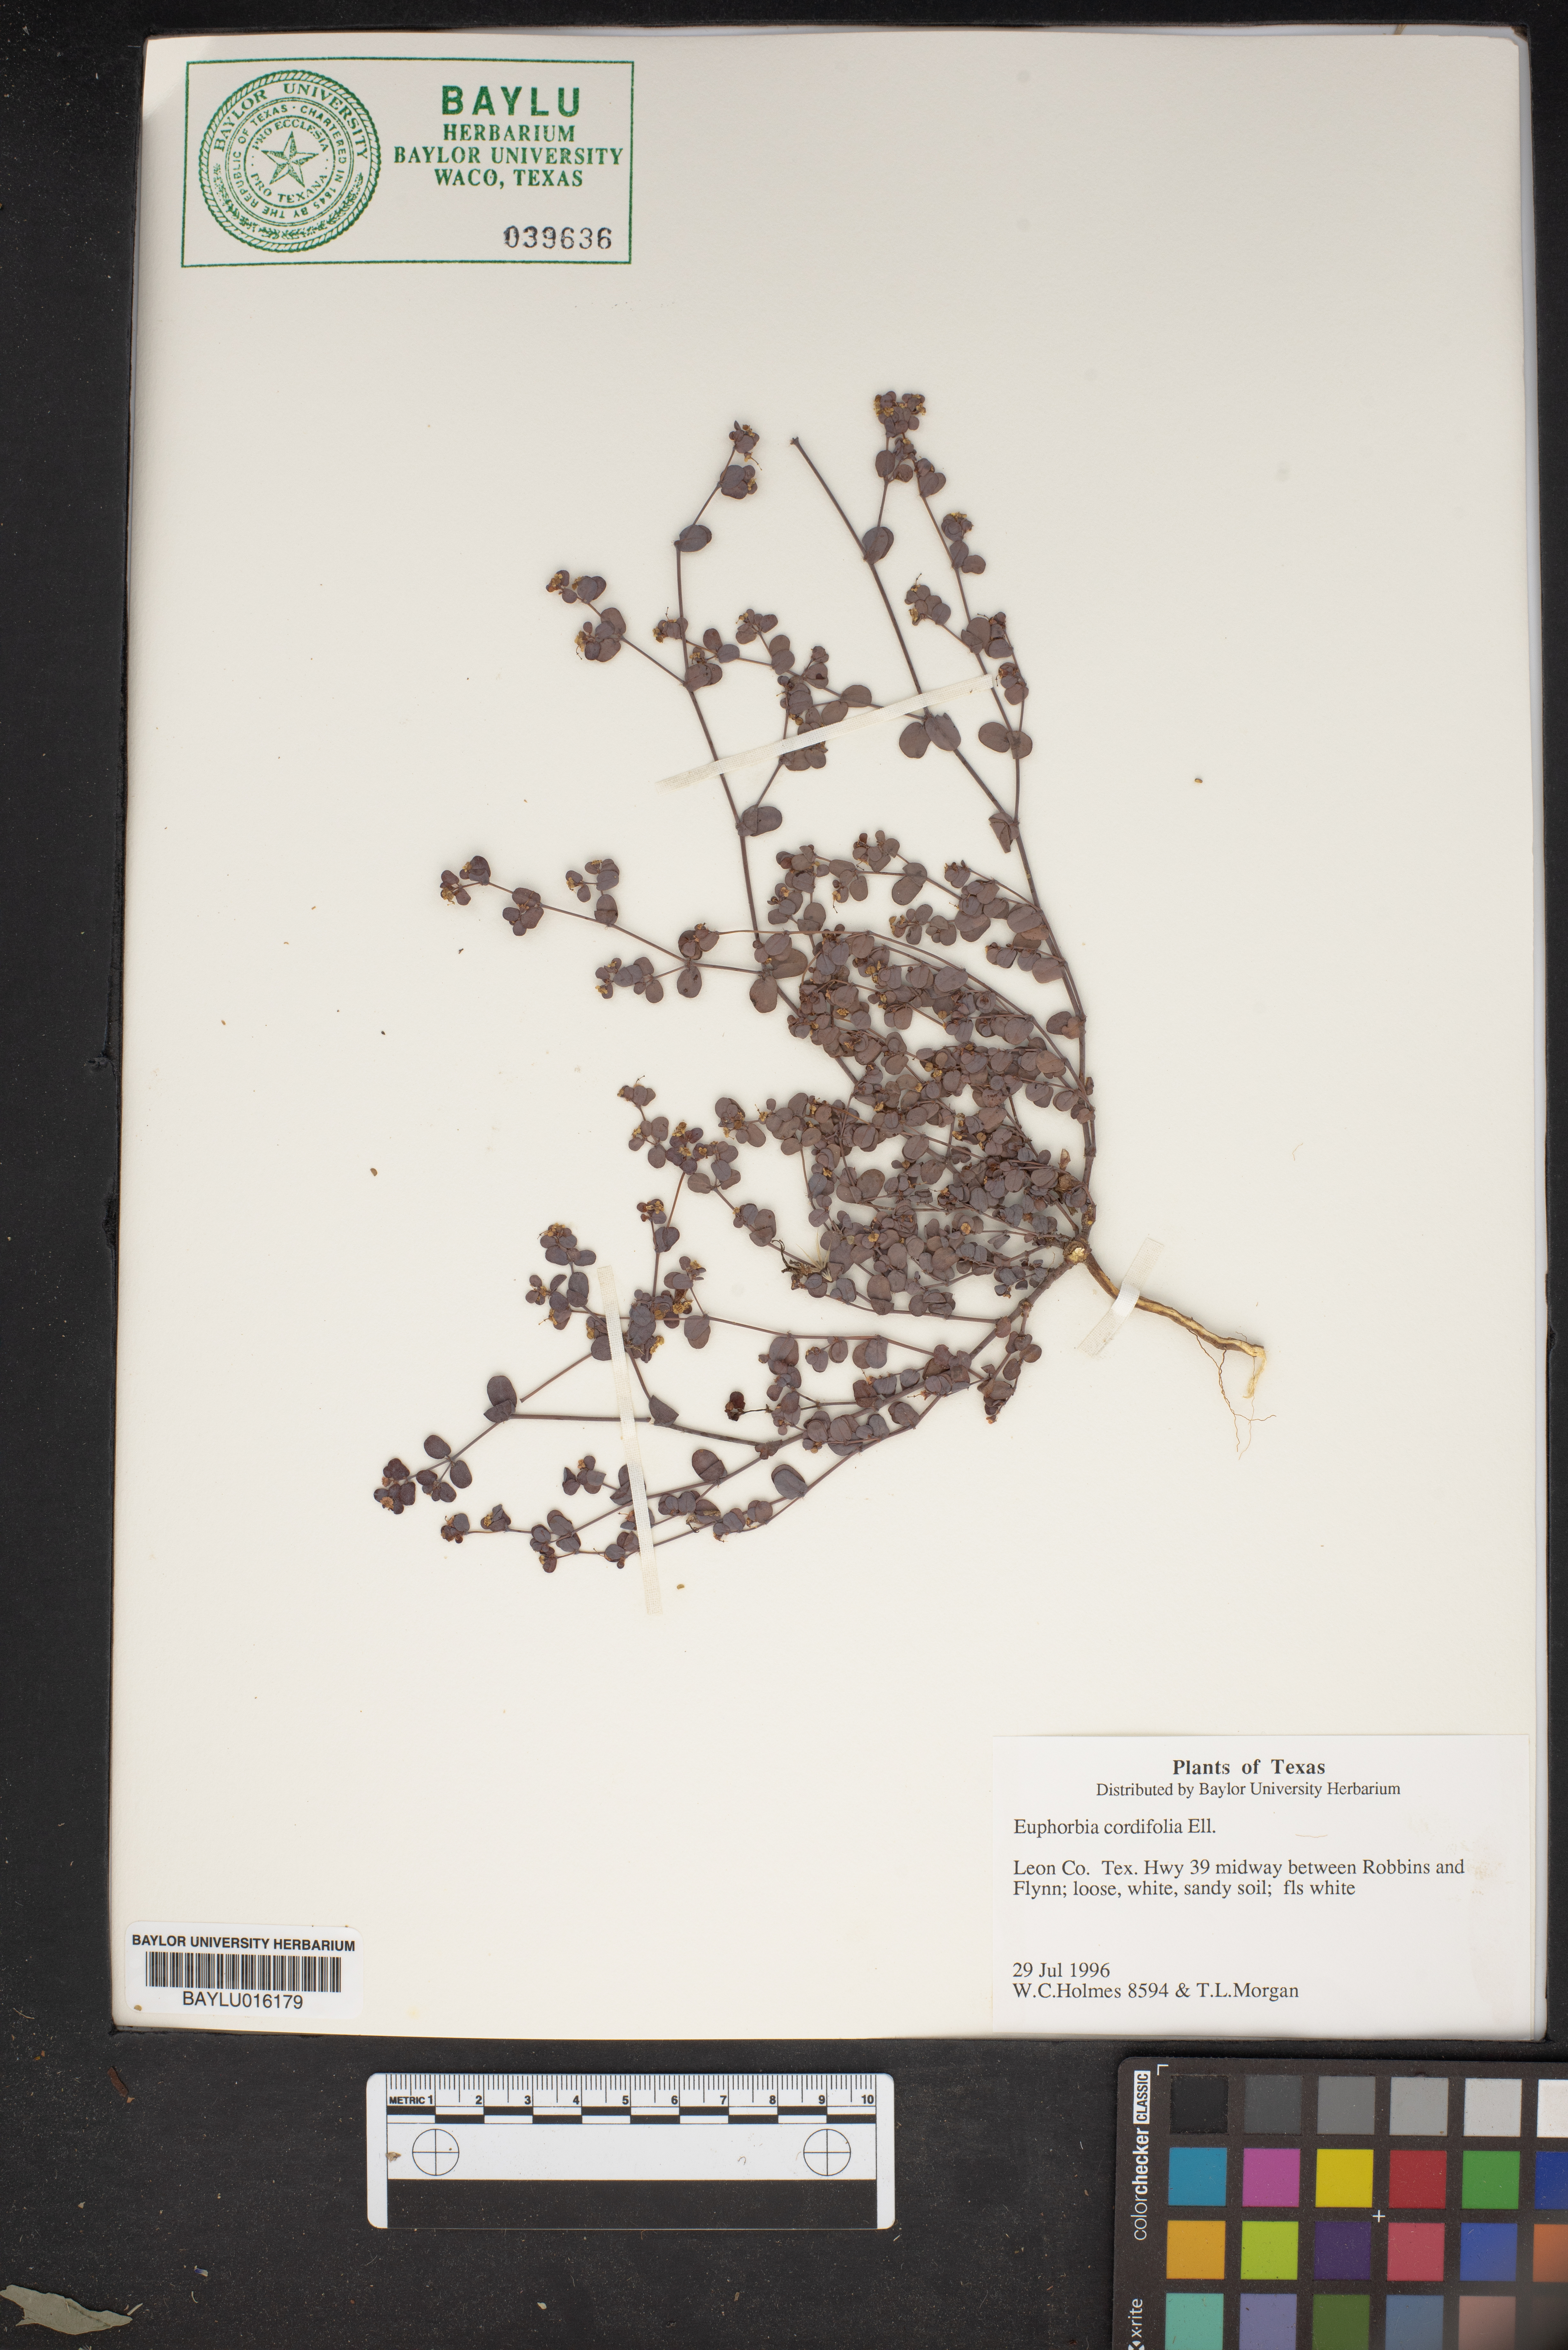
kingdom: Plantae
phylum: Tracheophyta
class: Magnoliopsida
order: Malpighiales
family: Euphorbiaceae
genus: Euphorbia
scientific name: Euphorbia cordifolia
